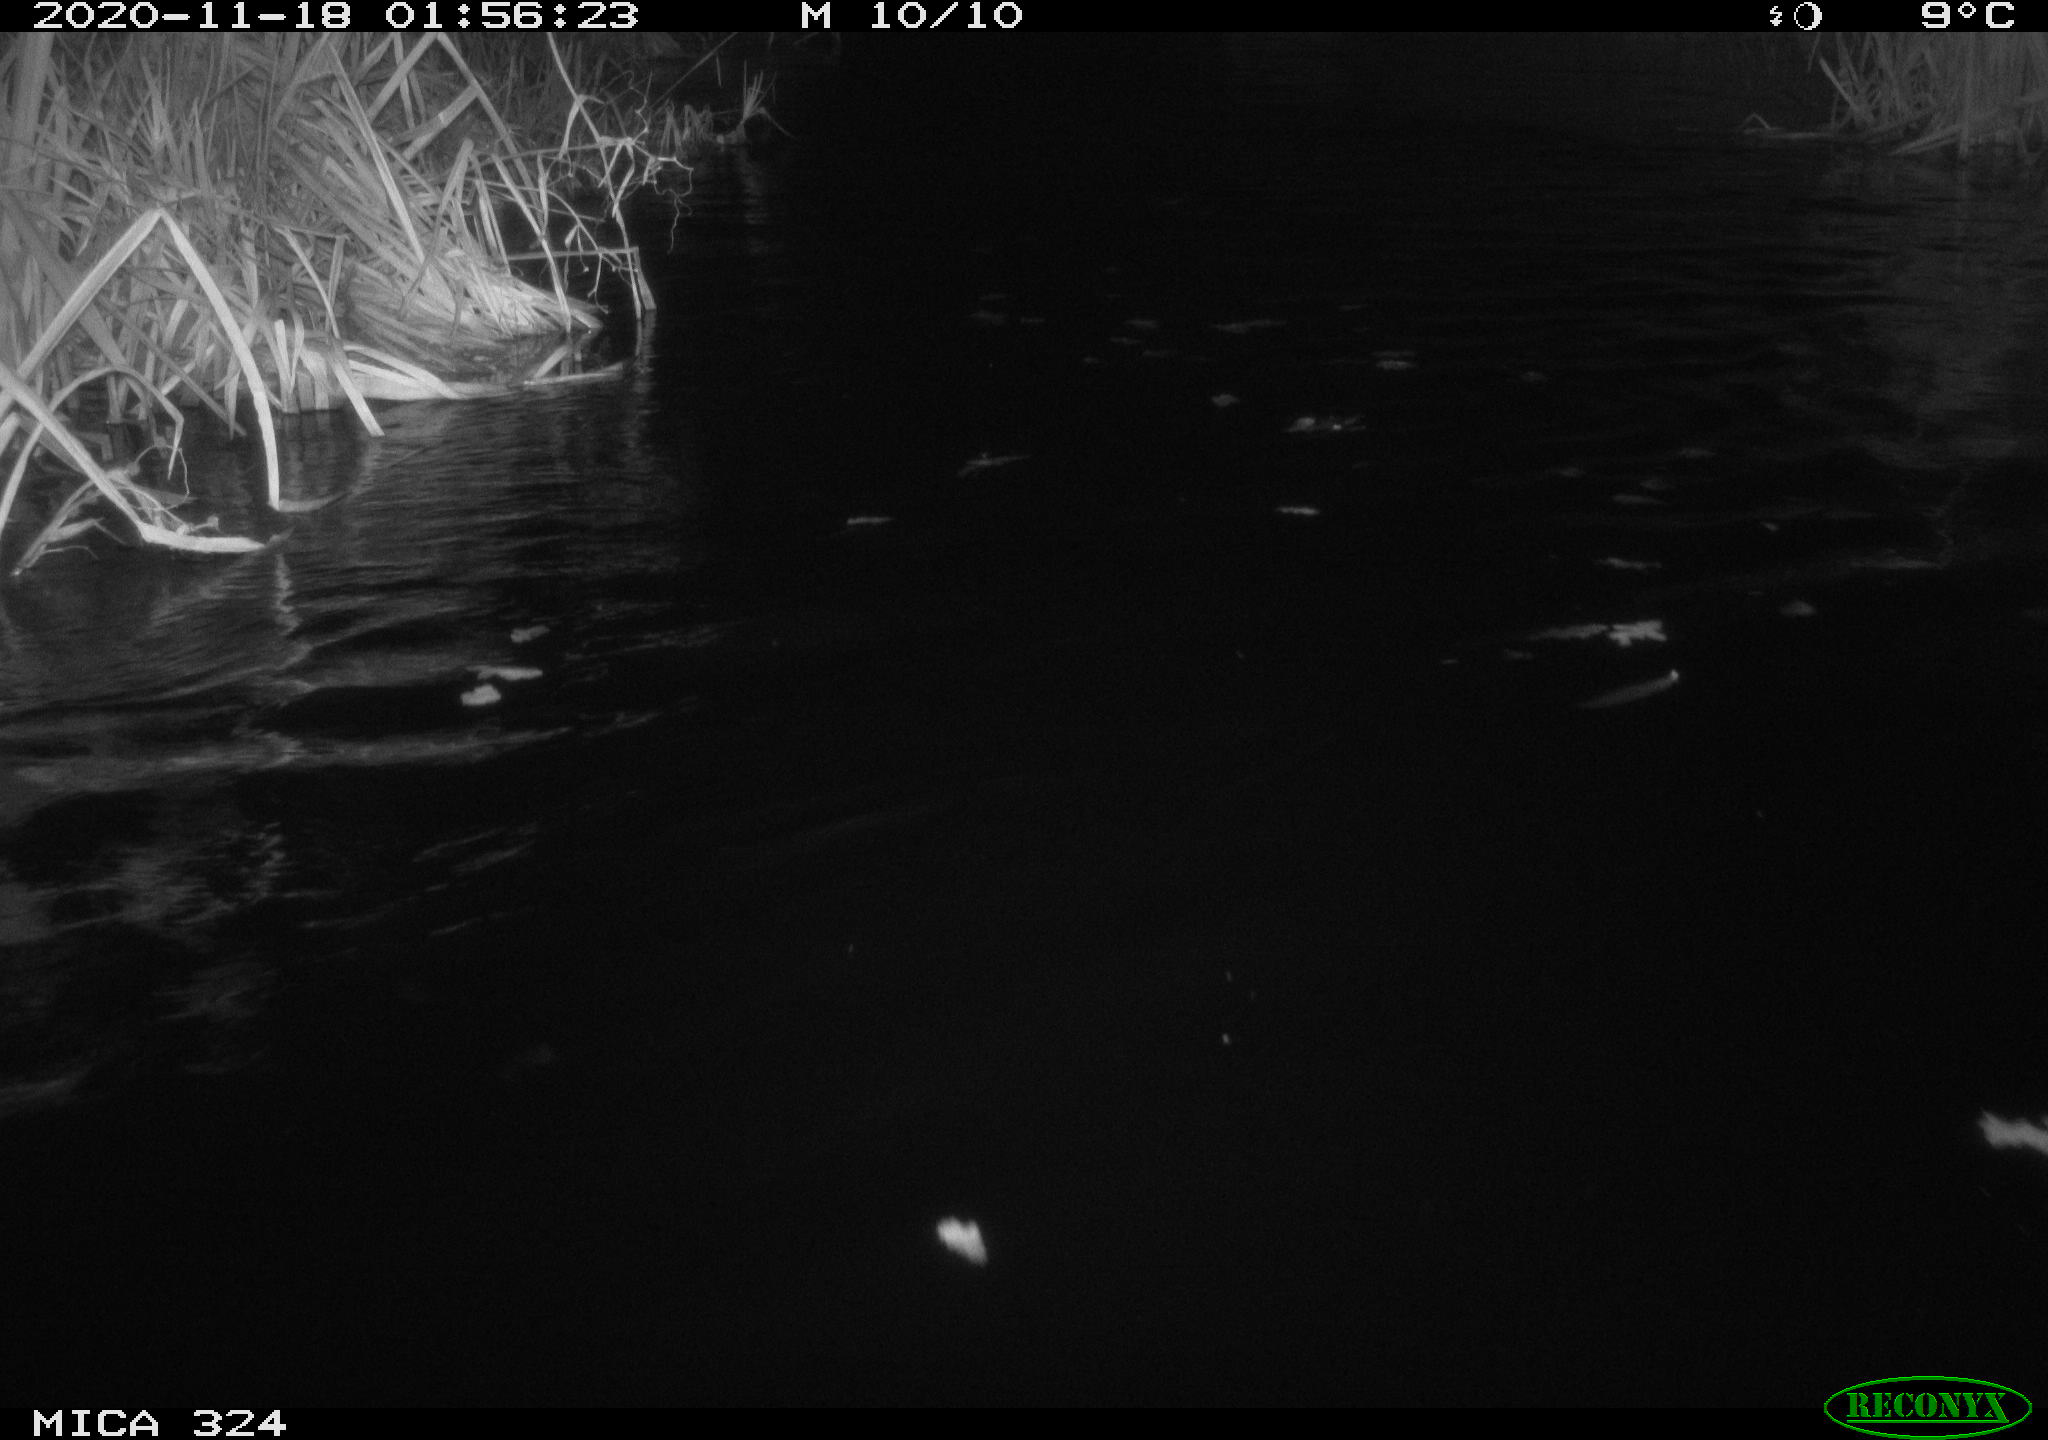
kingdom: Animalia
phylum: Chordata
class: Mammalia
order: Rodentia
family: Myocastoridae
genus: Myocastor
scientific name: Myocastor coypus
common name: Coypu
